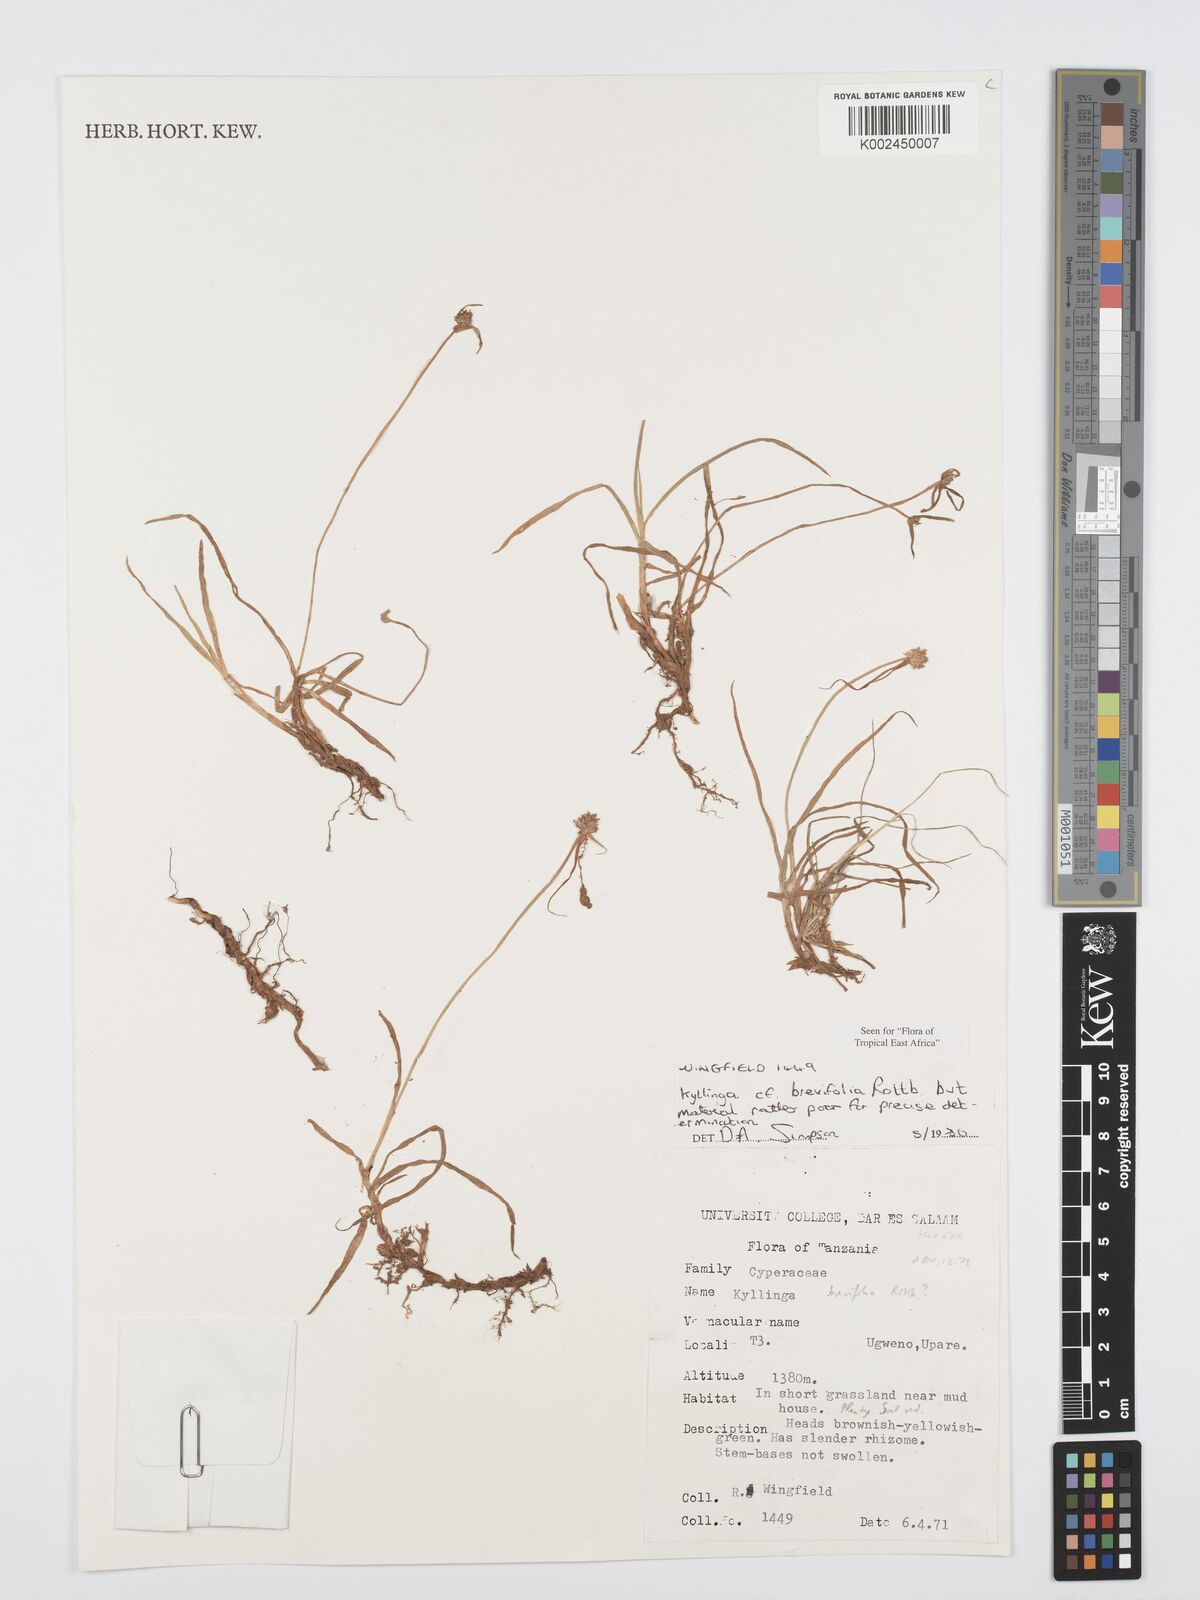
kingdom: Plantae
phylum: Tracheophyta
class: Liliopsida
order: Poales
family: Cyperaceae
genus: Cyperus
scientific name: Cyperus brevifolius
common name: Globe kyllinga
